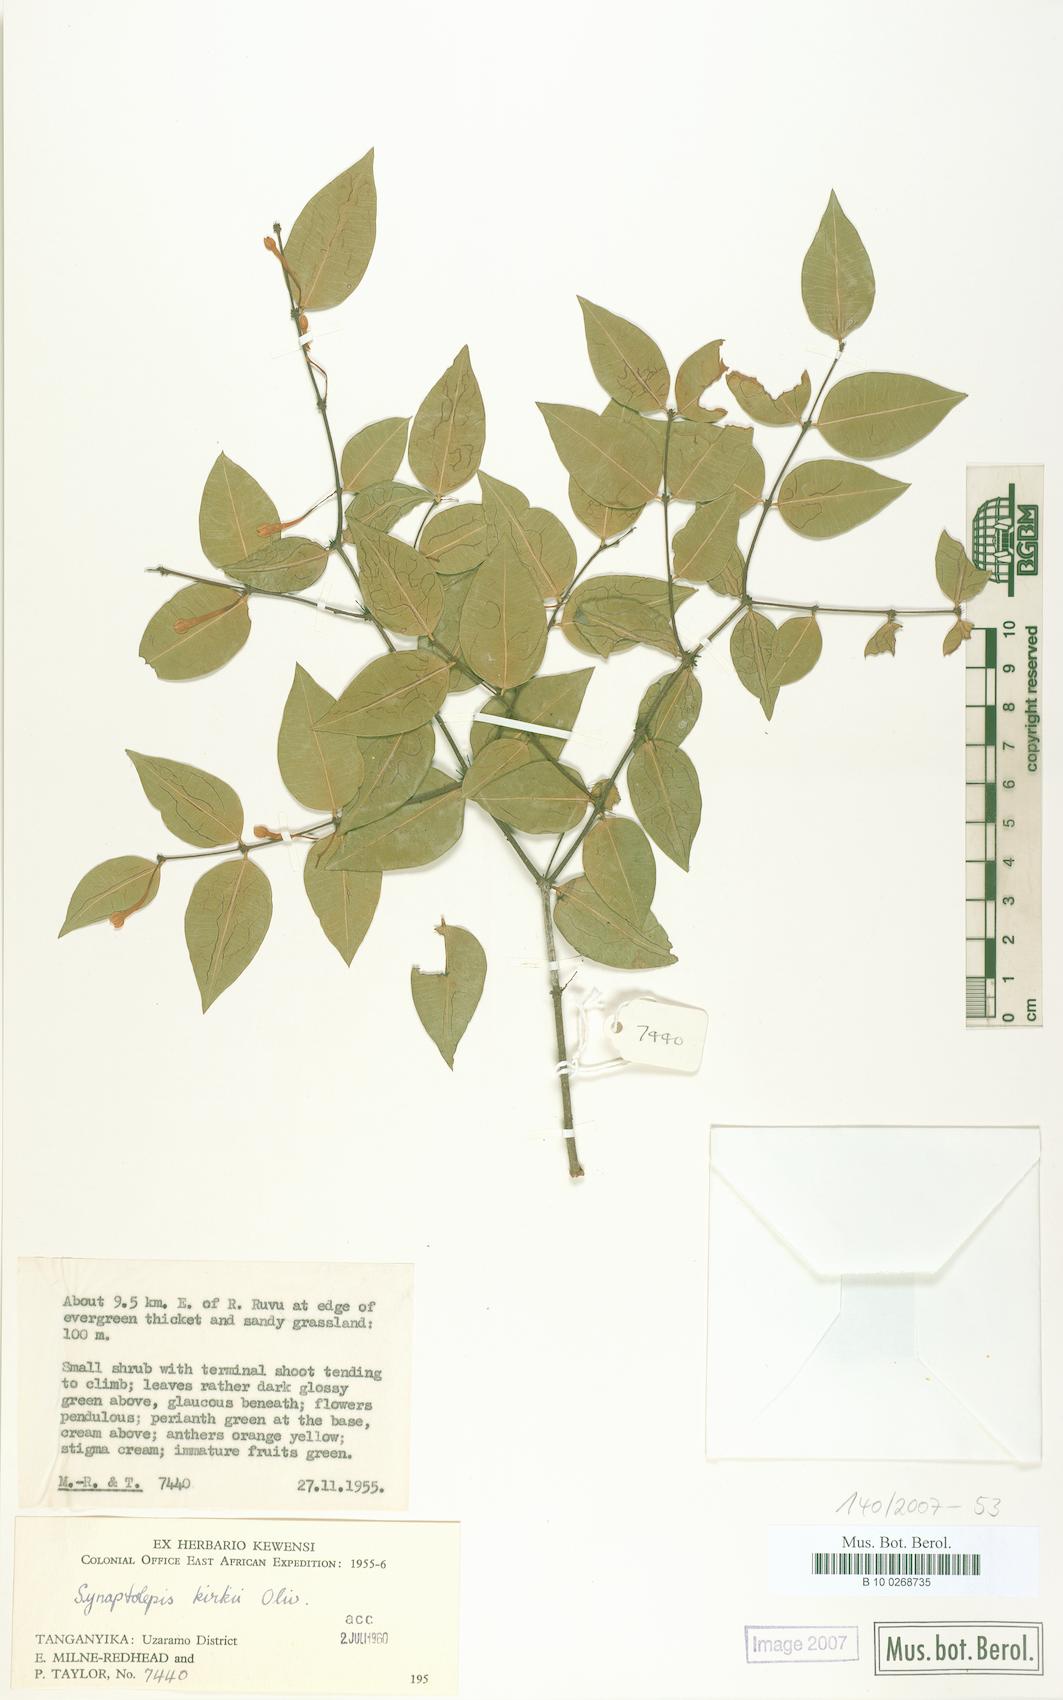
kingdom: Plantae
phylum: Tracheophyta
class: Magnoliopsida
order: Malvales
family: Thymelaeaceae
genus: Synaptolepis
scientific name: Synaptolepis kirkii
